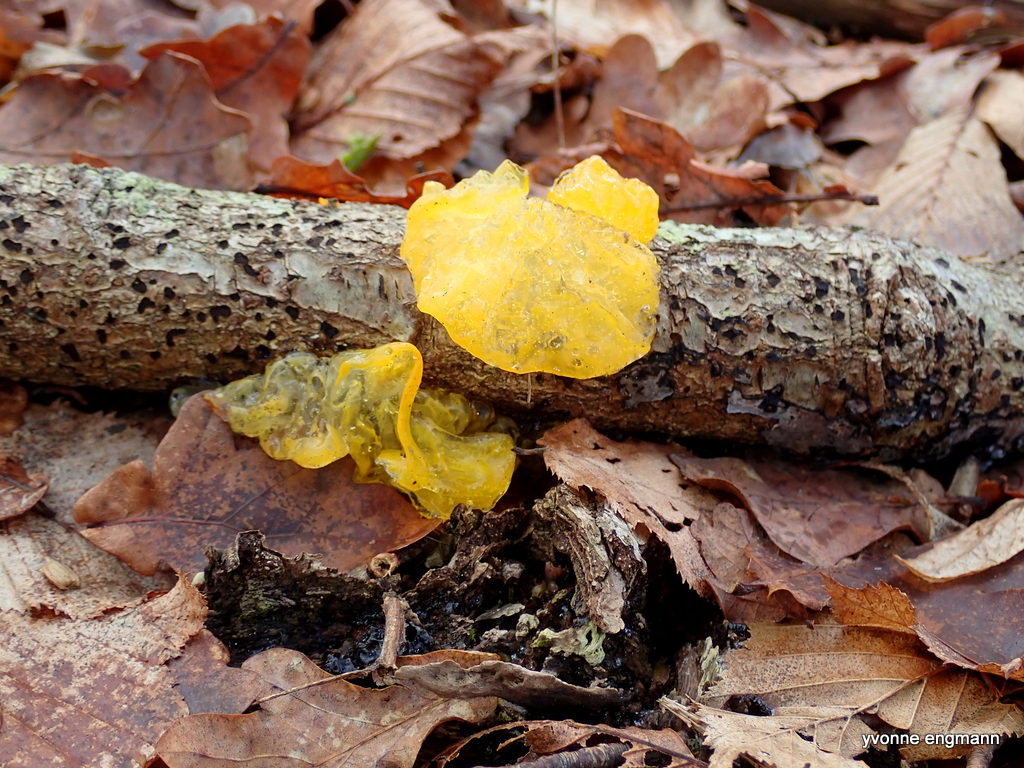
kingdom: Fungi
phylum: Basidiomycota
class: Tremellomycetes
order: Tremellales
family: Tremellaceae
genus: Tremella
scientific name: Tremella mesenterica
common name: gul bævresvamp
